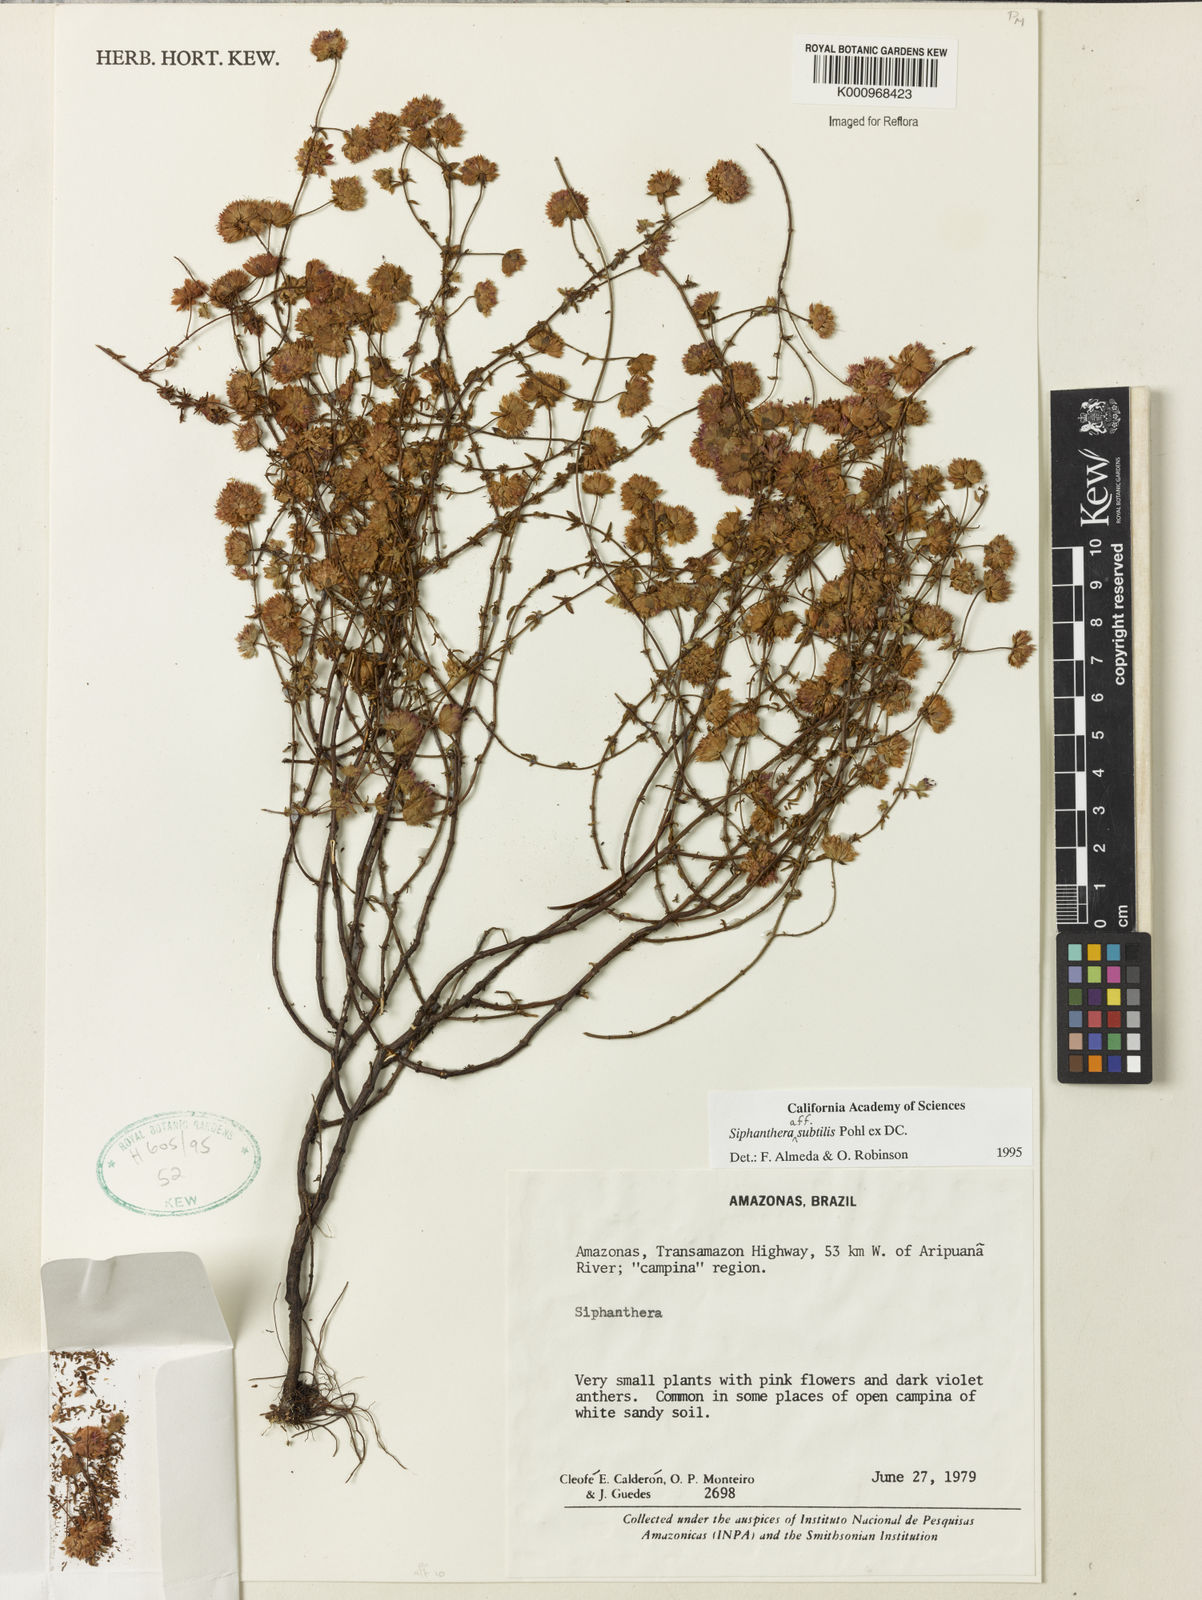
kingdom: Plantae
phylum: Tracheophyta
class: Magnoliopsida
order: Myrtales
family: Melastomataceae
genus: Siphanthera
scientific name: Siphanthera
